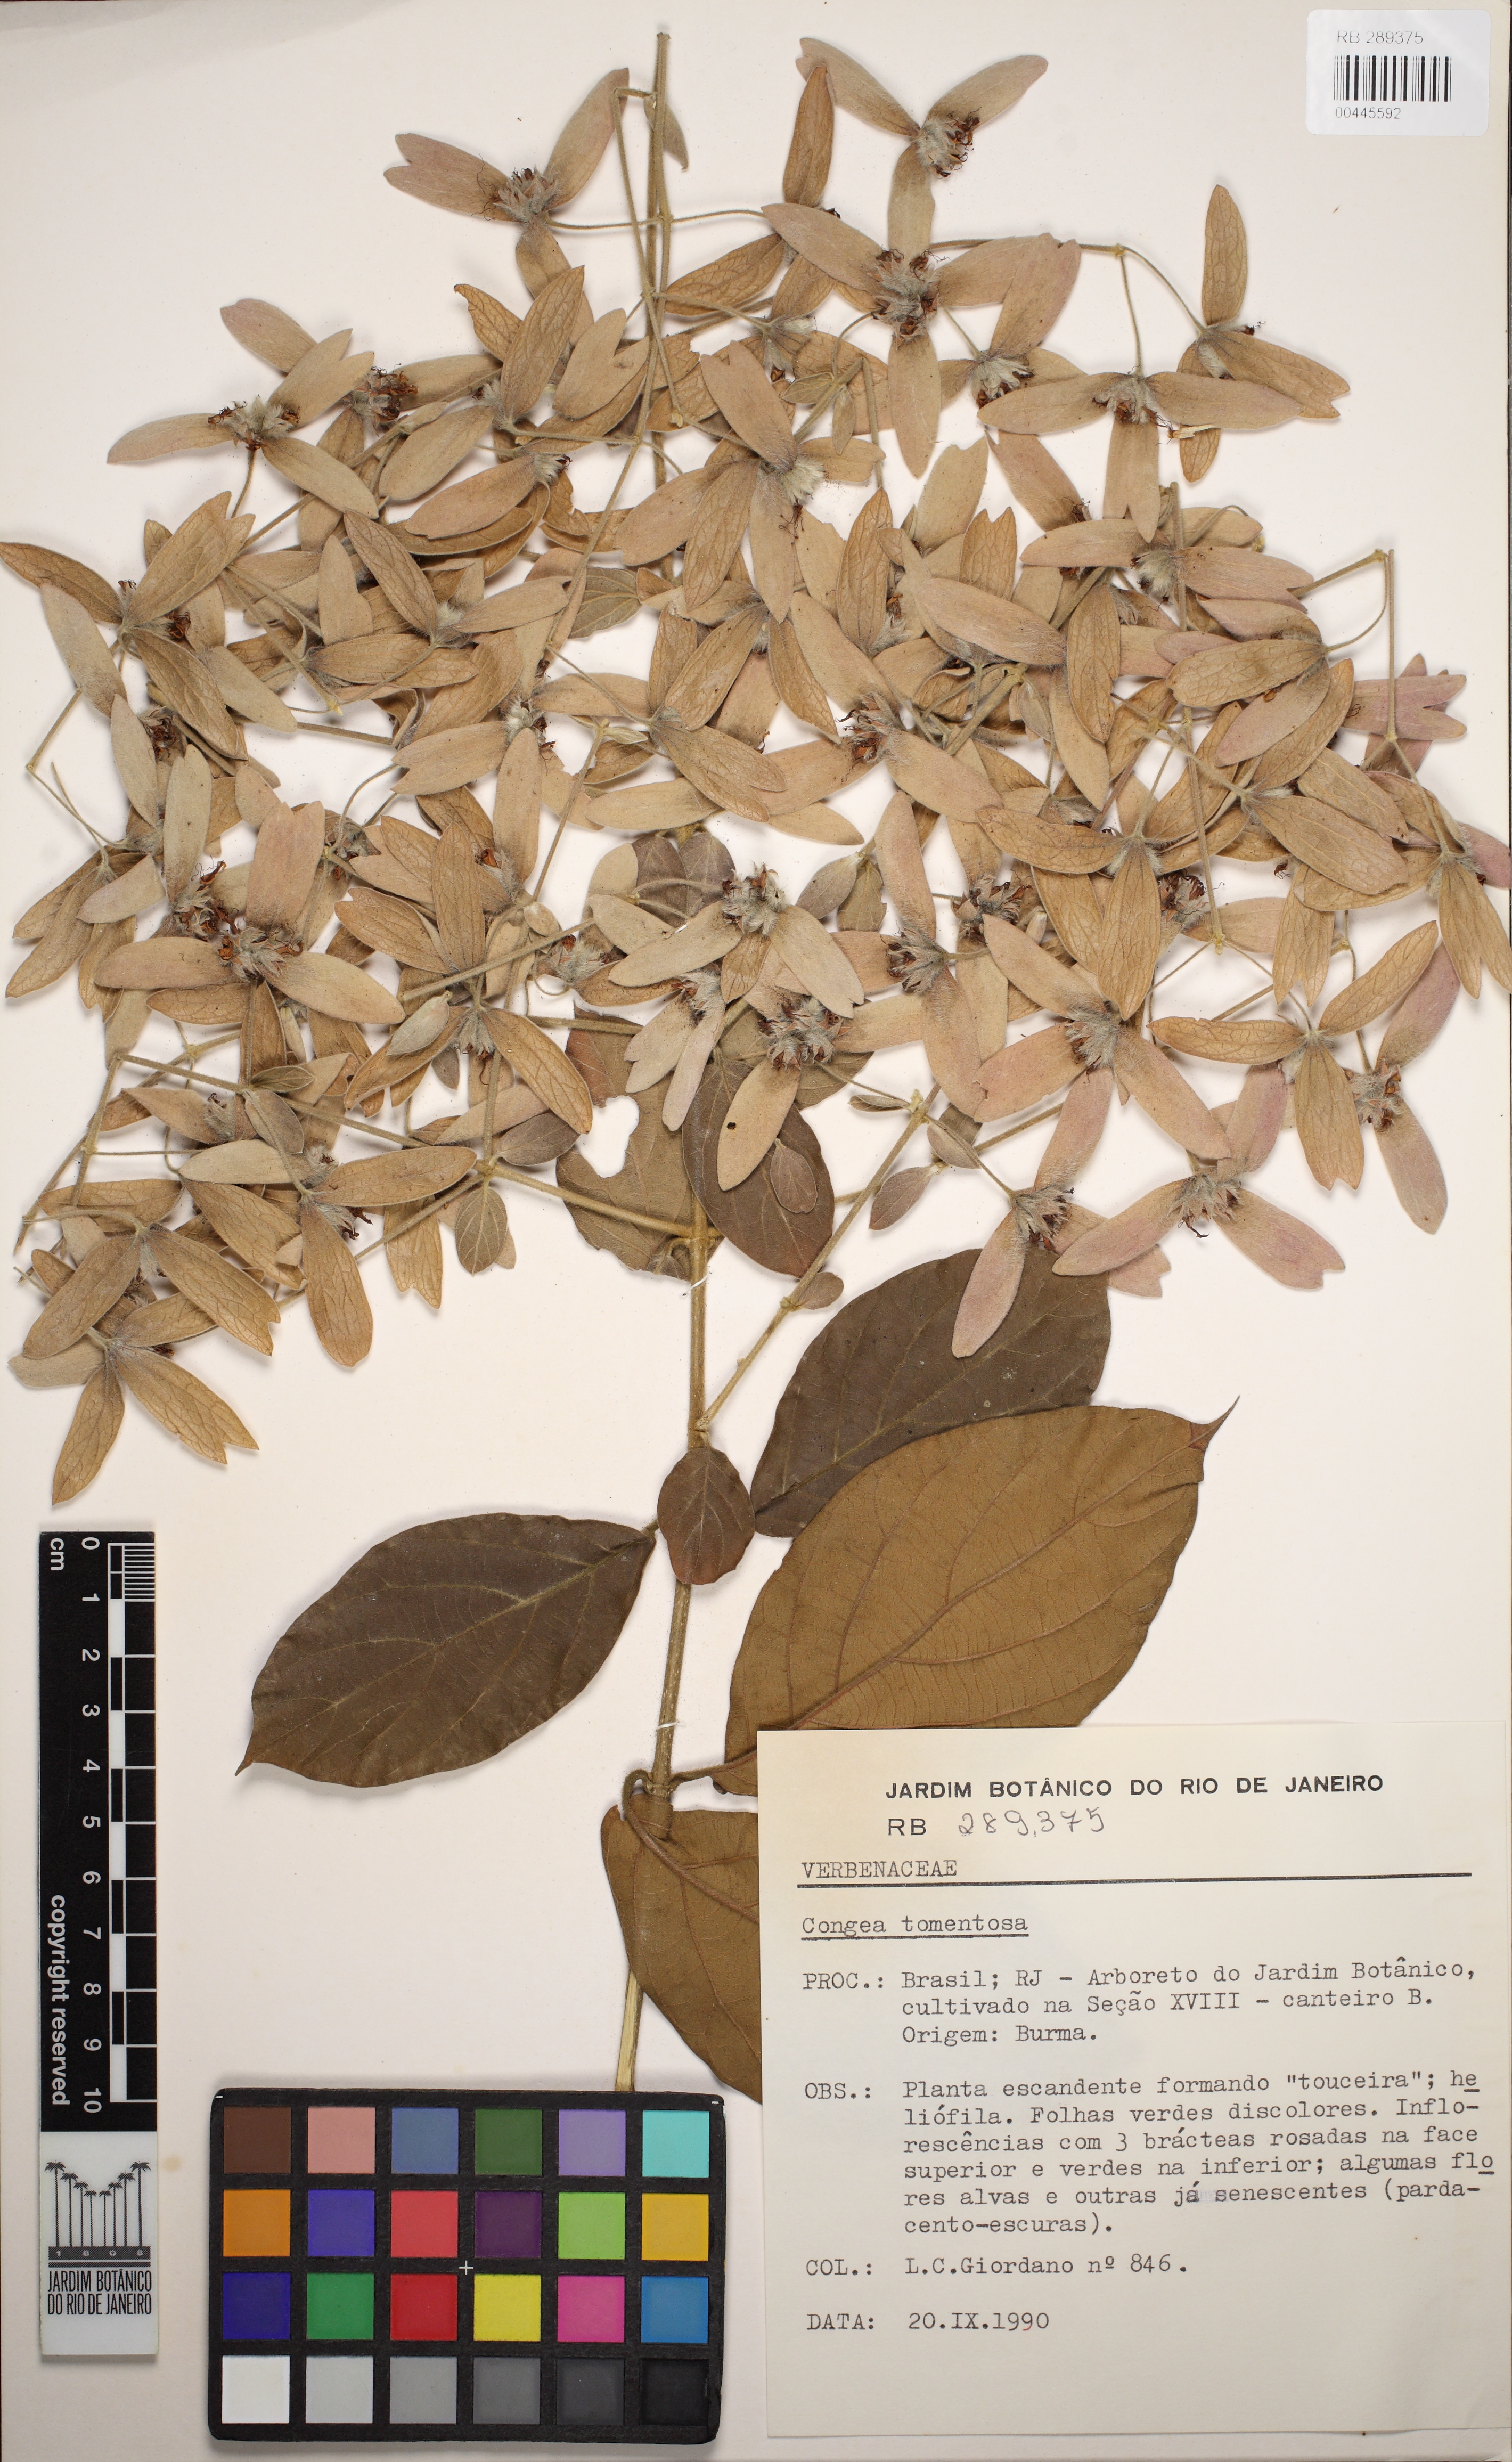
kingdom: Plantae
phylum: Tracheophyta
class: Magnoliopsida
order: Lamiales
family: Lamiaceae
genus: Congea
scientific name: Congea tomentosa
